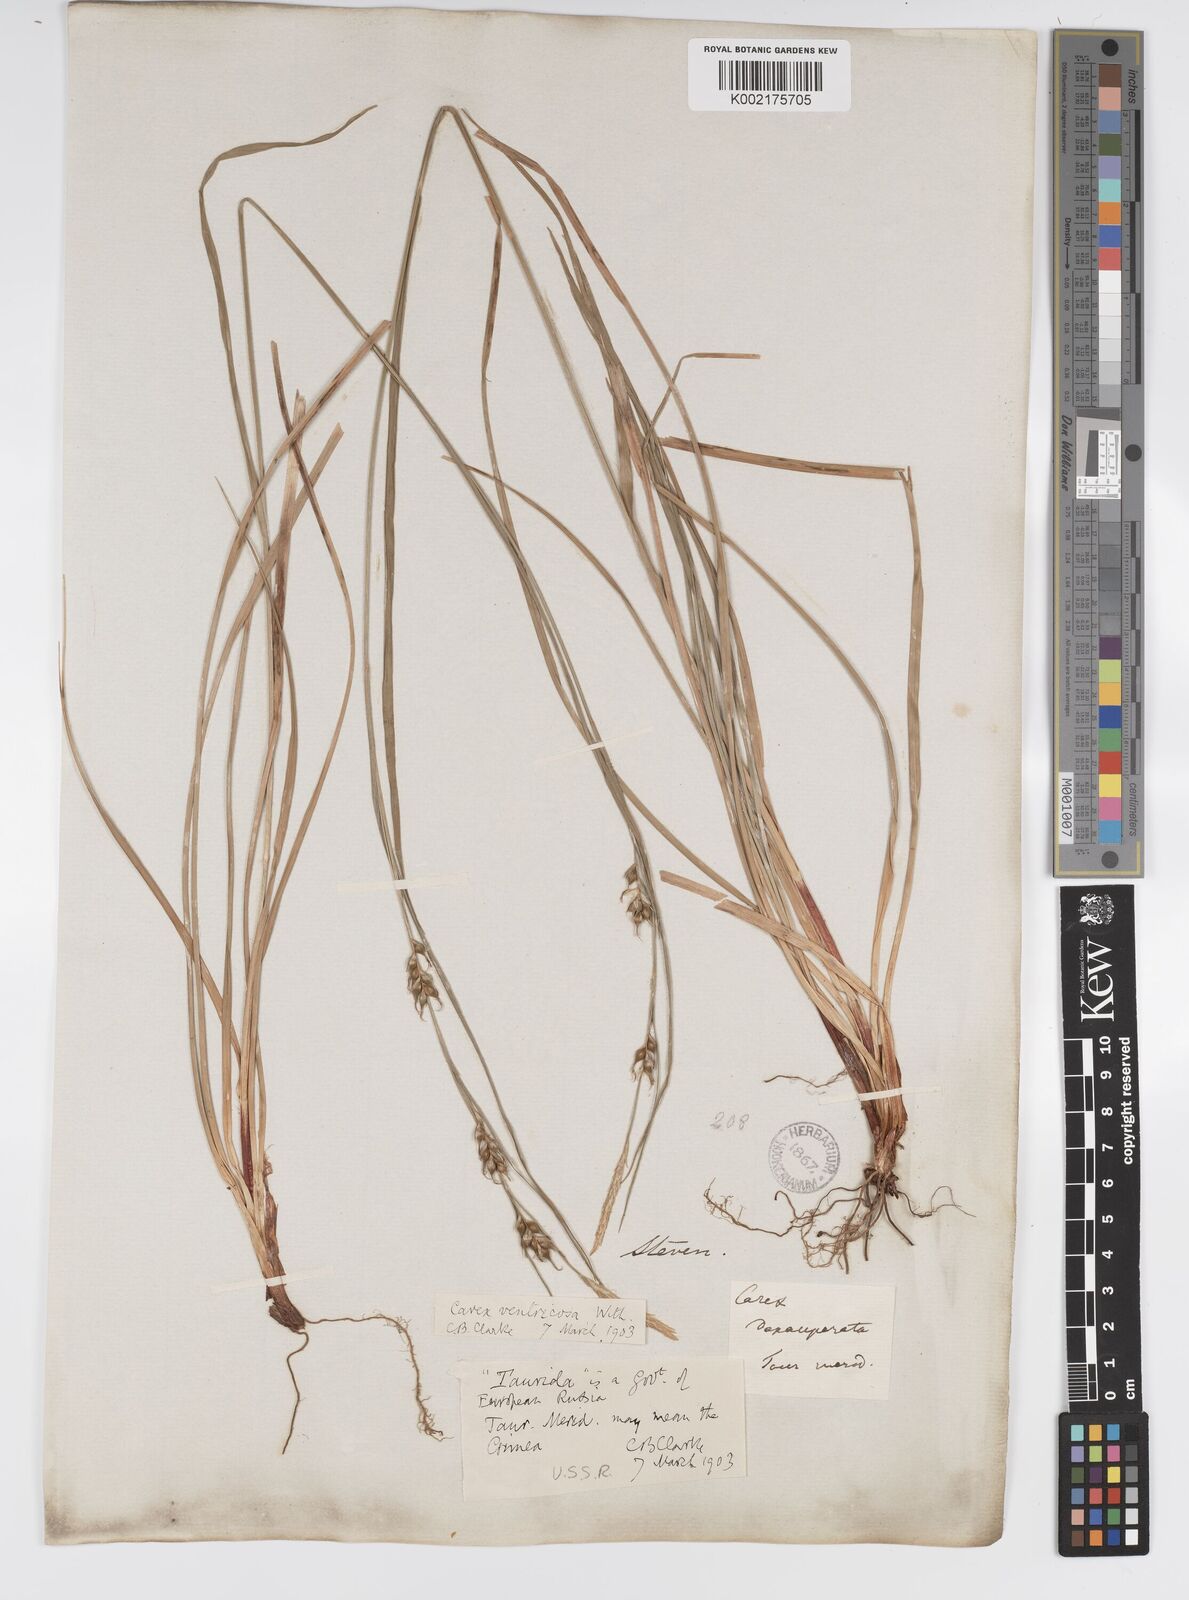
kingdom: Plantae
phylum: Tracheophyta
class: Liliopsida
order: Poales
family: Cyperaceae
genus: Carex
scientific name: Carex
